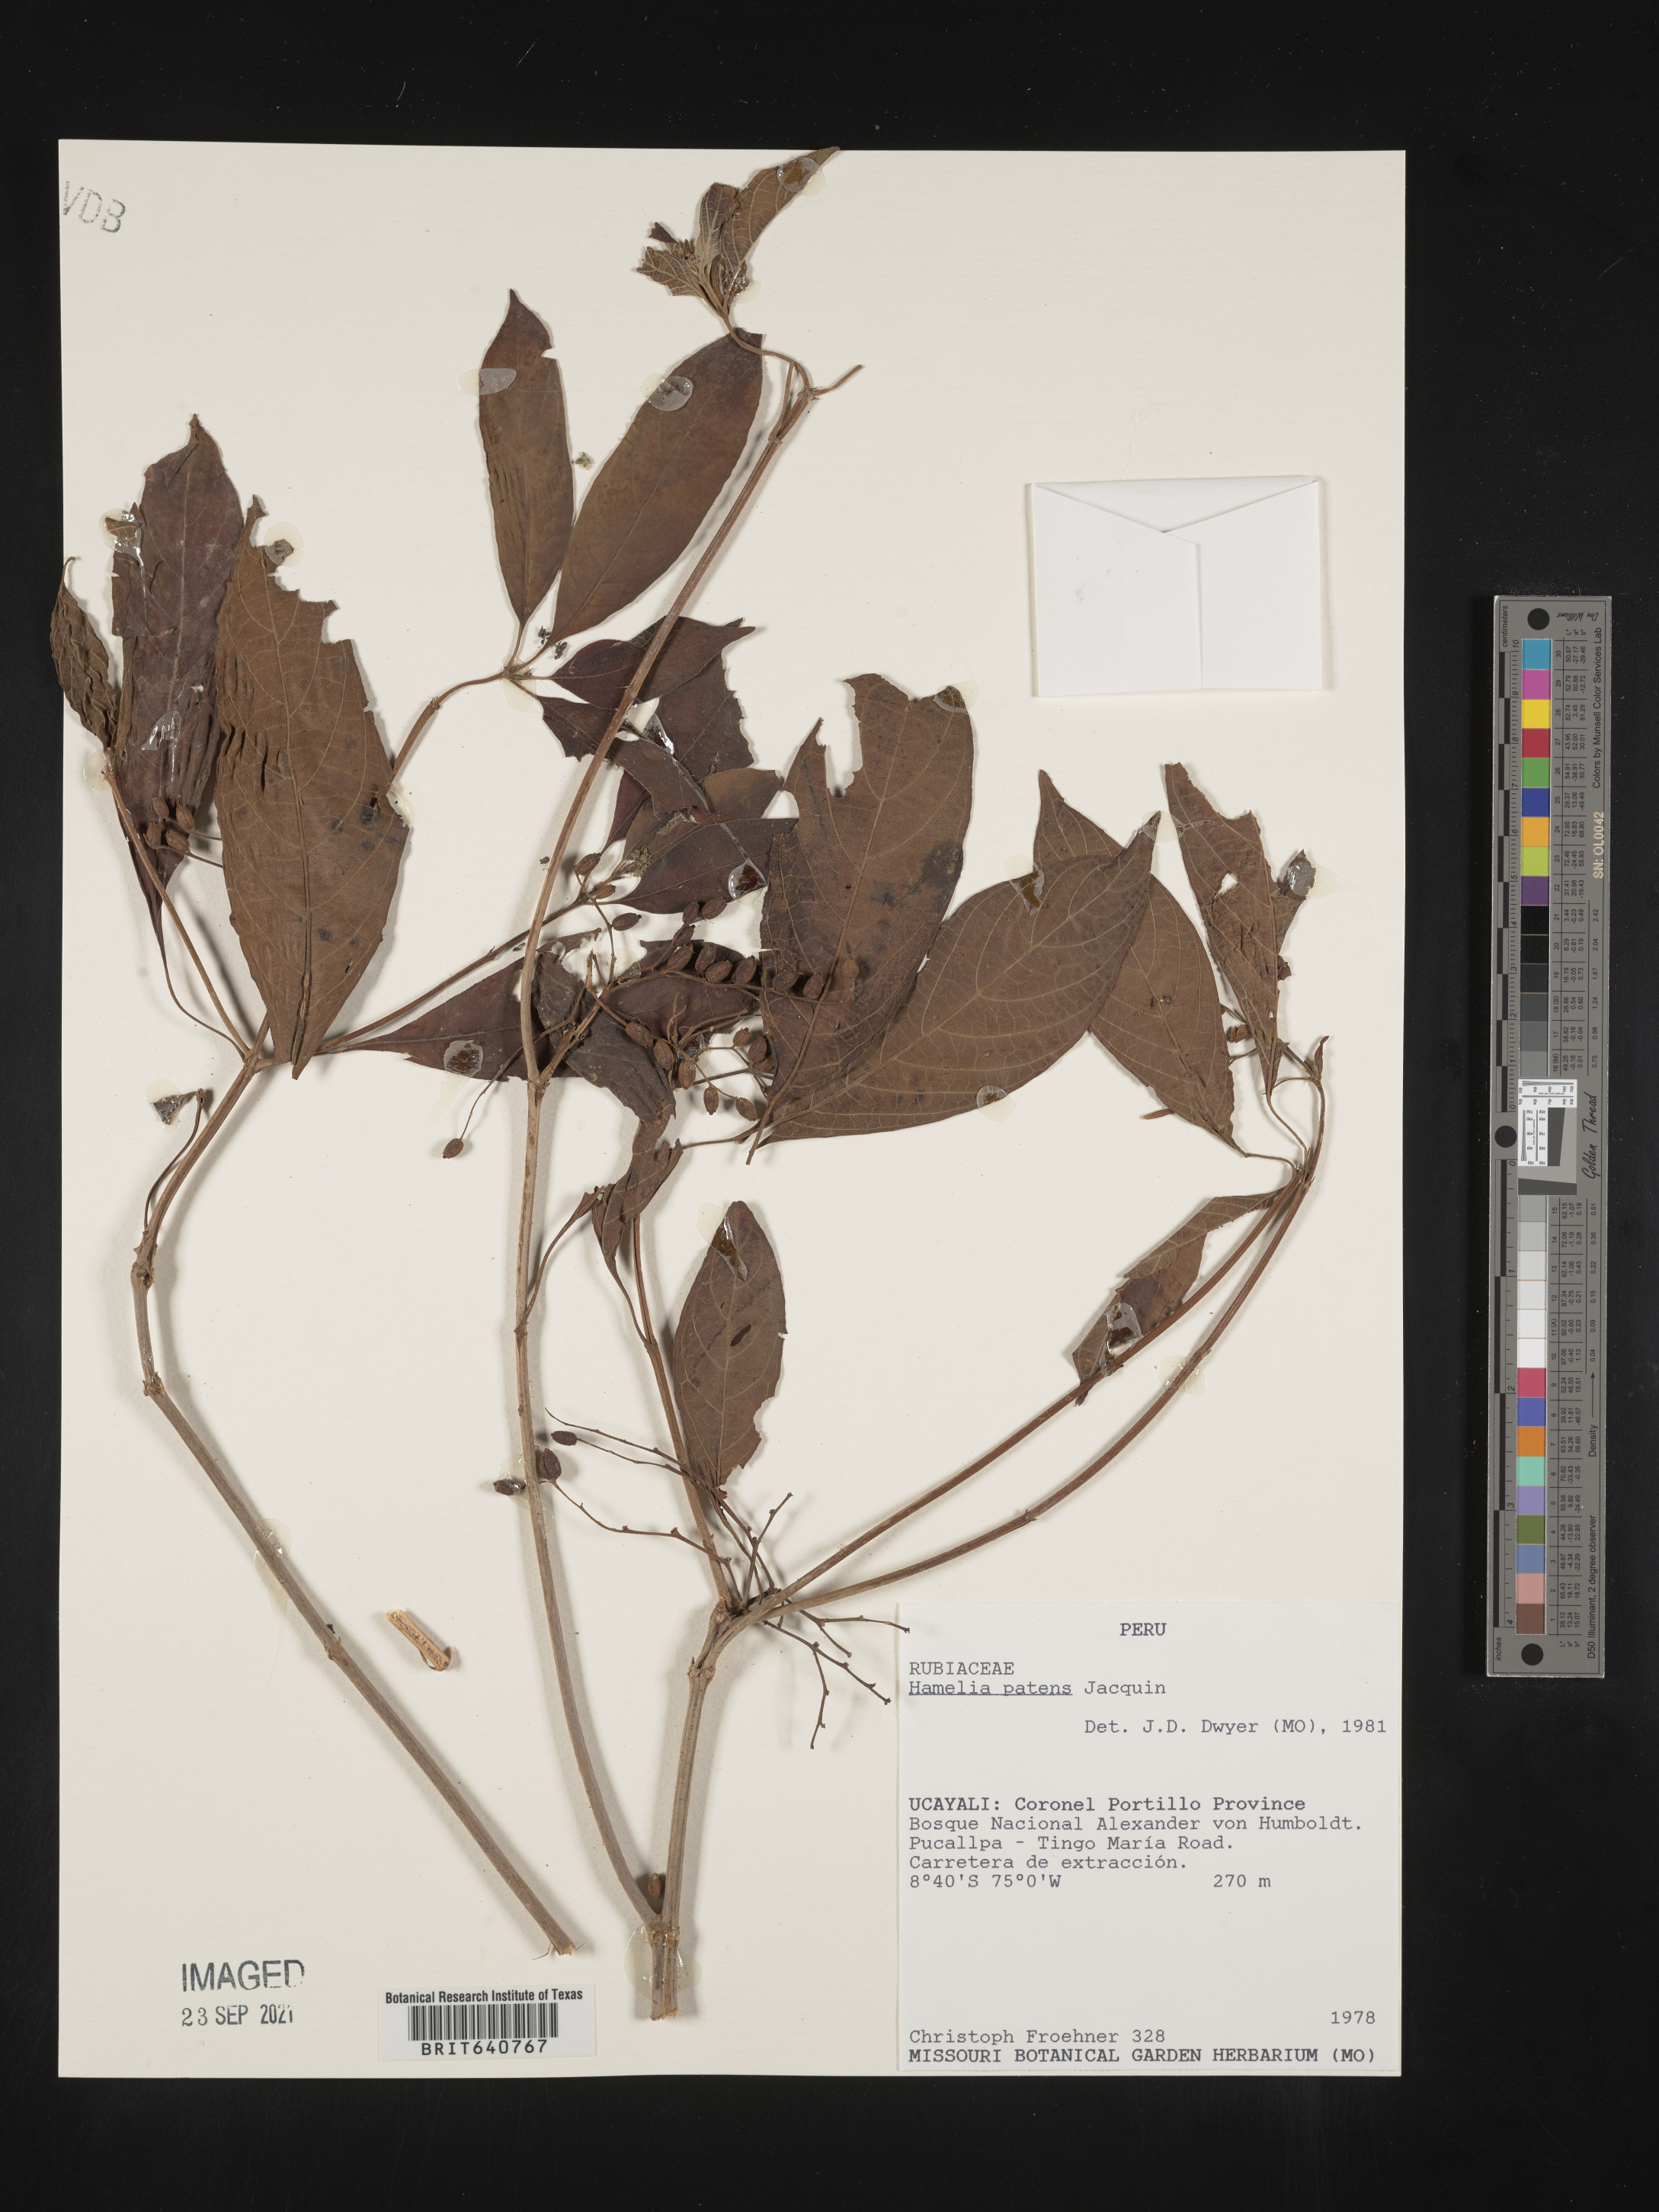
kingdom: Plantae
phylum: Tracheophyta
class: Magnoliopsida
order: Gentianales
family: Rubiaceae
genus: Hamelia
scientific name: Hamelia
